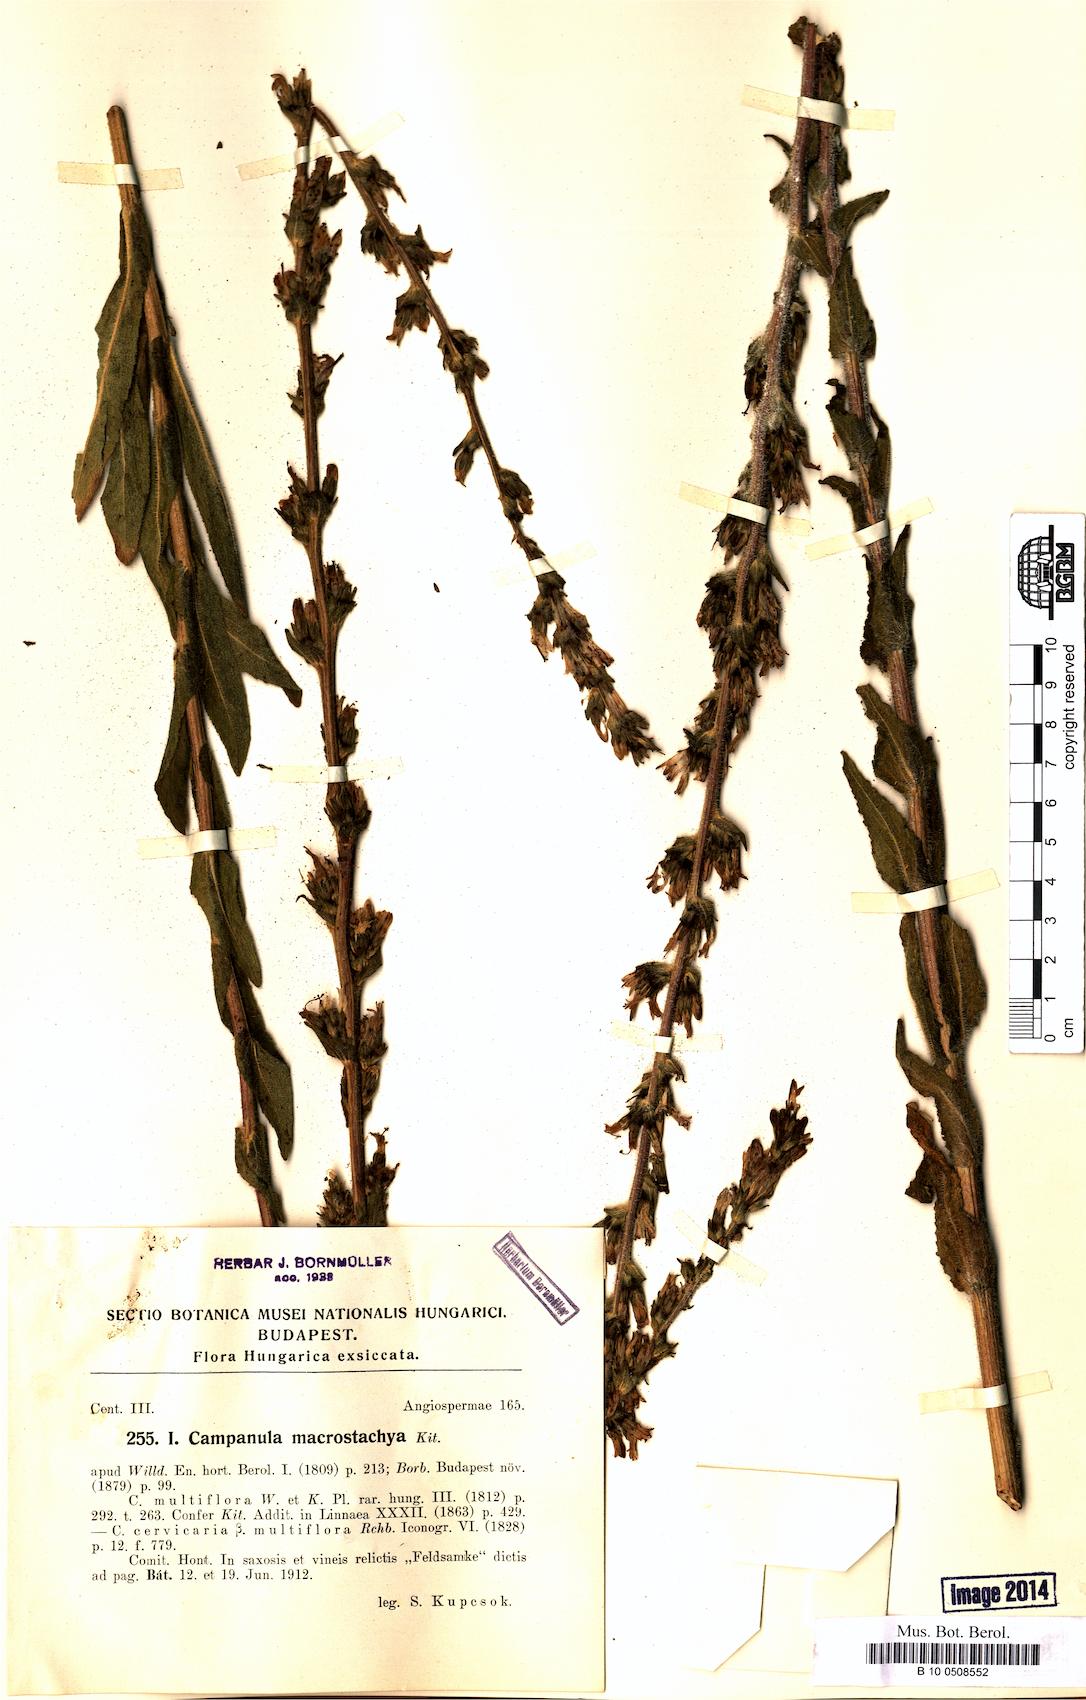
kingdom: Plantae
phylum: Tracheophyta
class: Magnoliopsida
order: Asterales
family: Campanulaceae
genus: Campanula
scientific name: Campanula macrostachya
